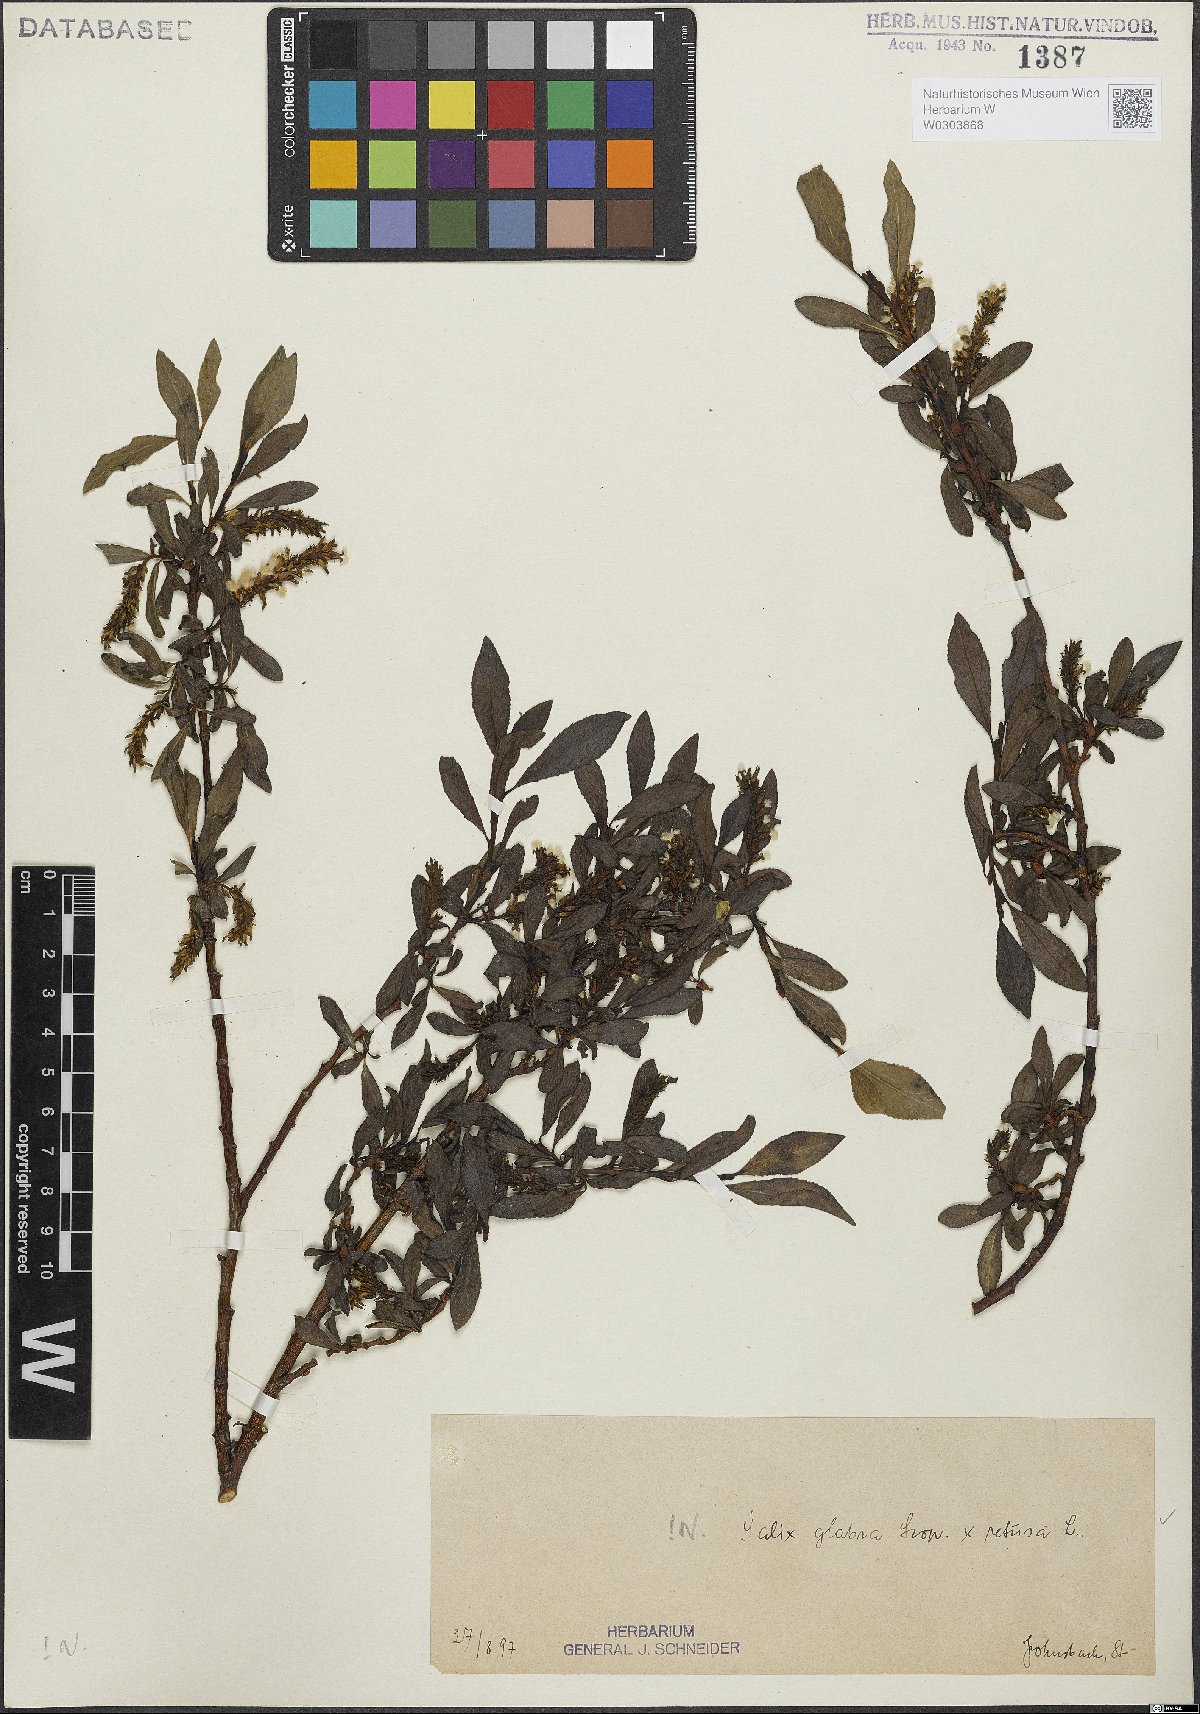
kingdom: Plantae
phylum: Tracheophyta
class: Magnoliopsida
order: Malpighiales
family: Salicaceae
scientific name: Salicaceae
